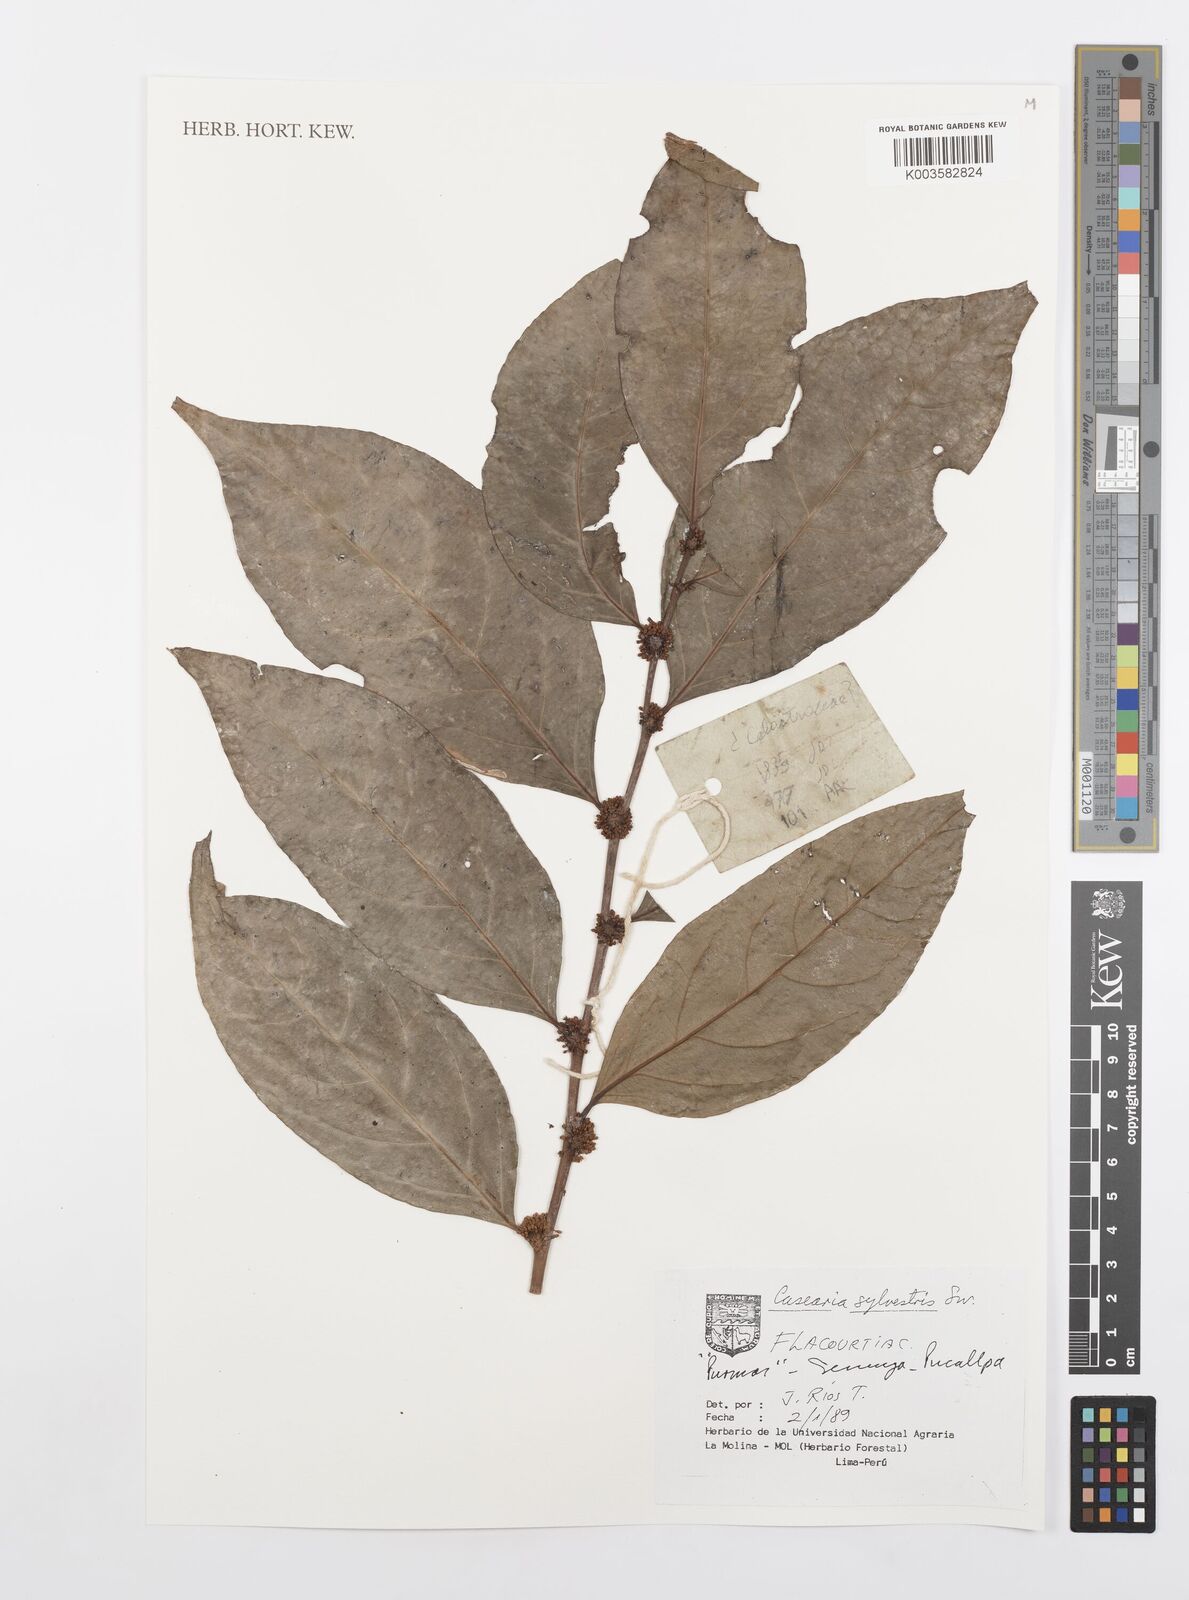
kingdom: Plantae
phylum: Tracheophyta
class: Magnoliopsida
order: Malpighiales
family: Salicaceae
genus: Casearia
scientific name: Casearia sylvestris
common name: Wild sage
